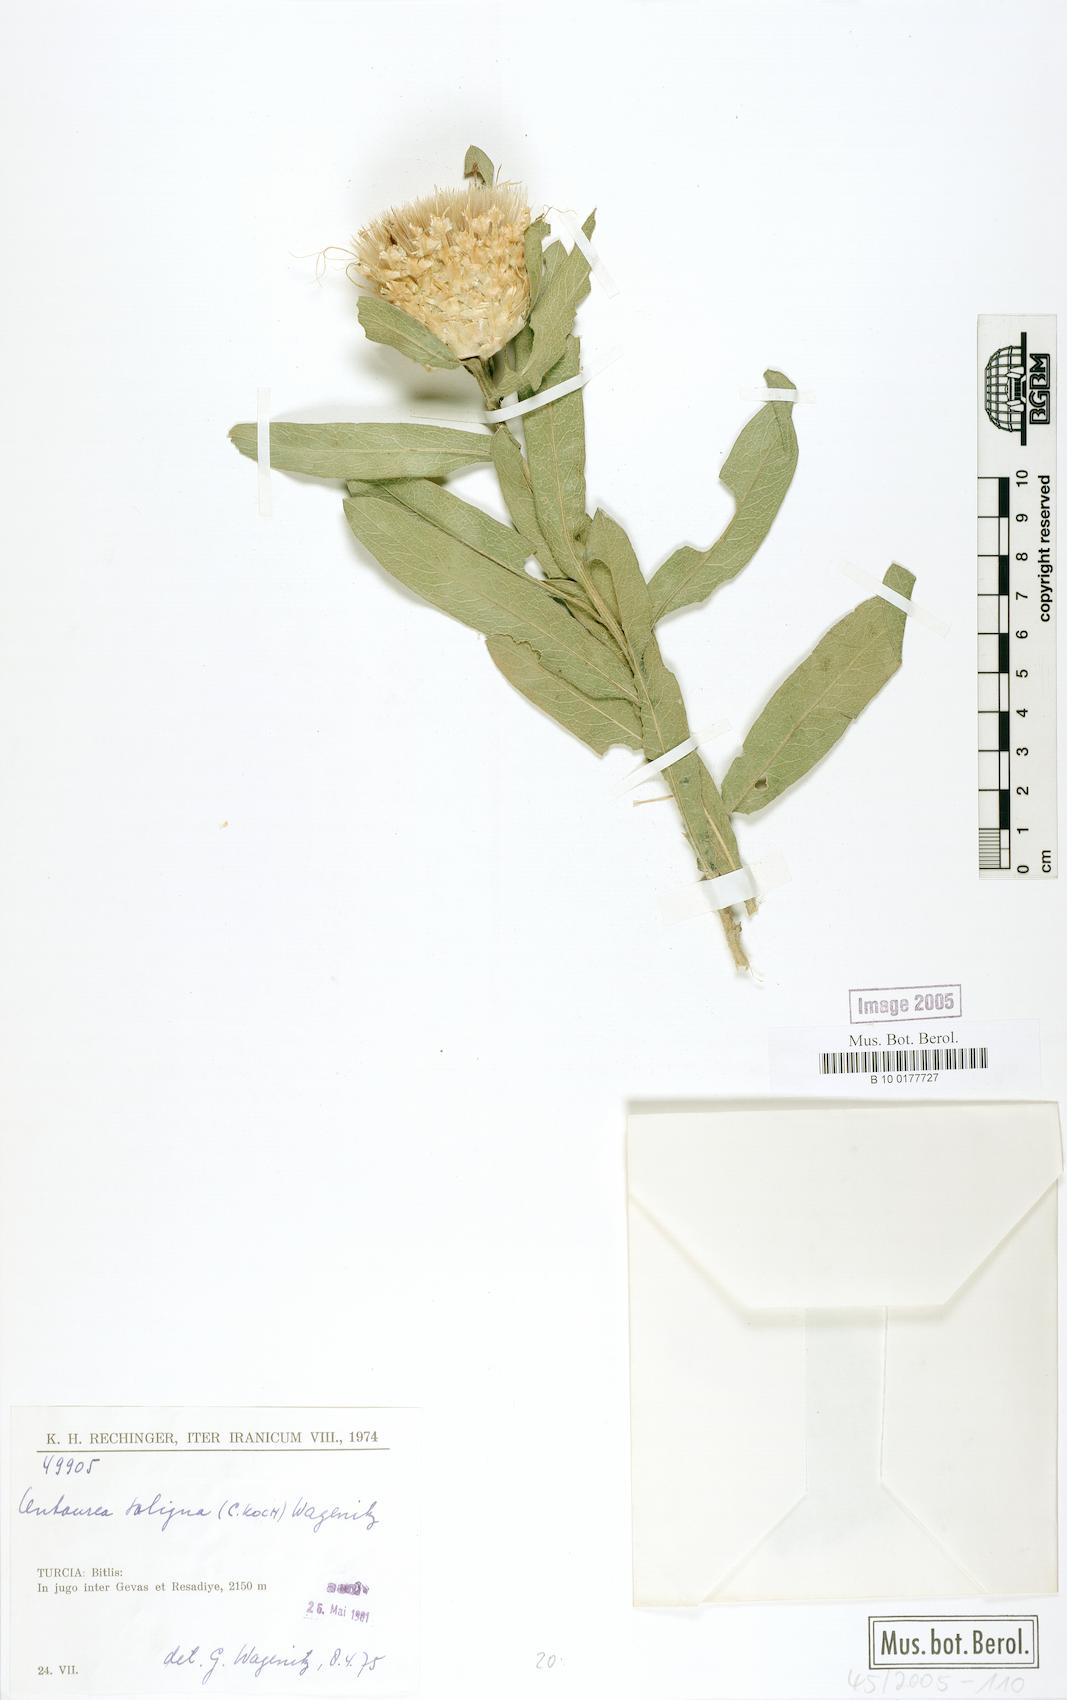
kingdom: Plantae
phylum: Tracheophyta
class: Magnoliopsida
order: Asterales
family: Asteraceae
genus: Centaurea
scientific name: Centaurea saligna
